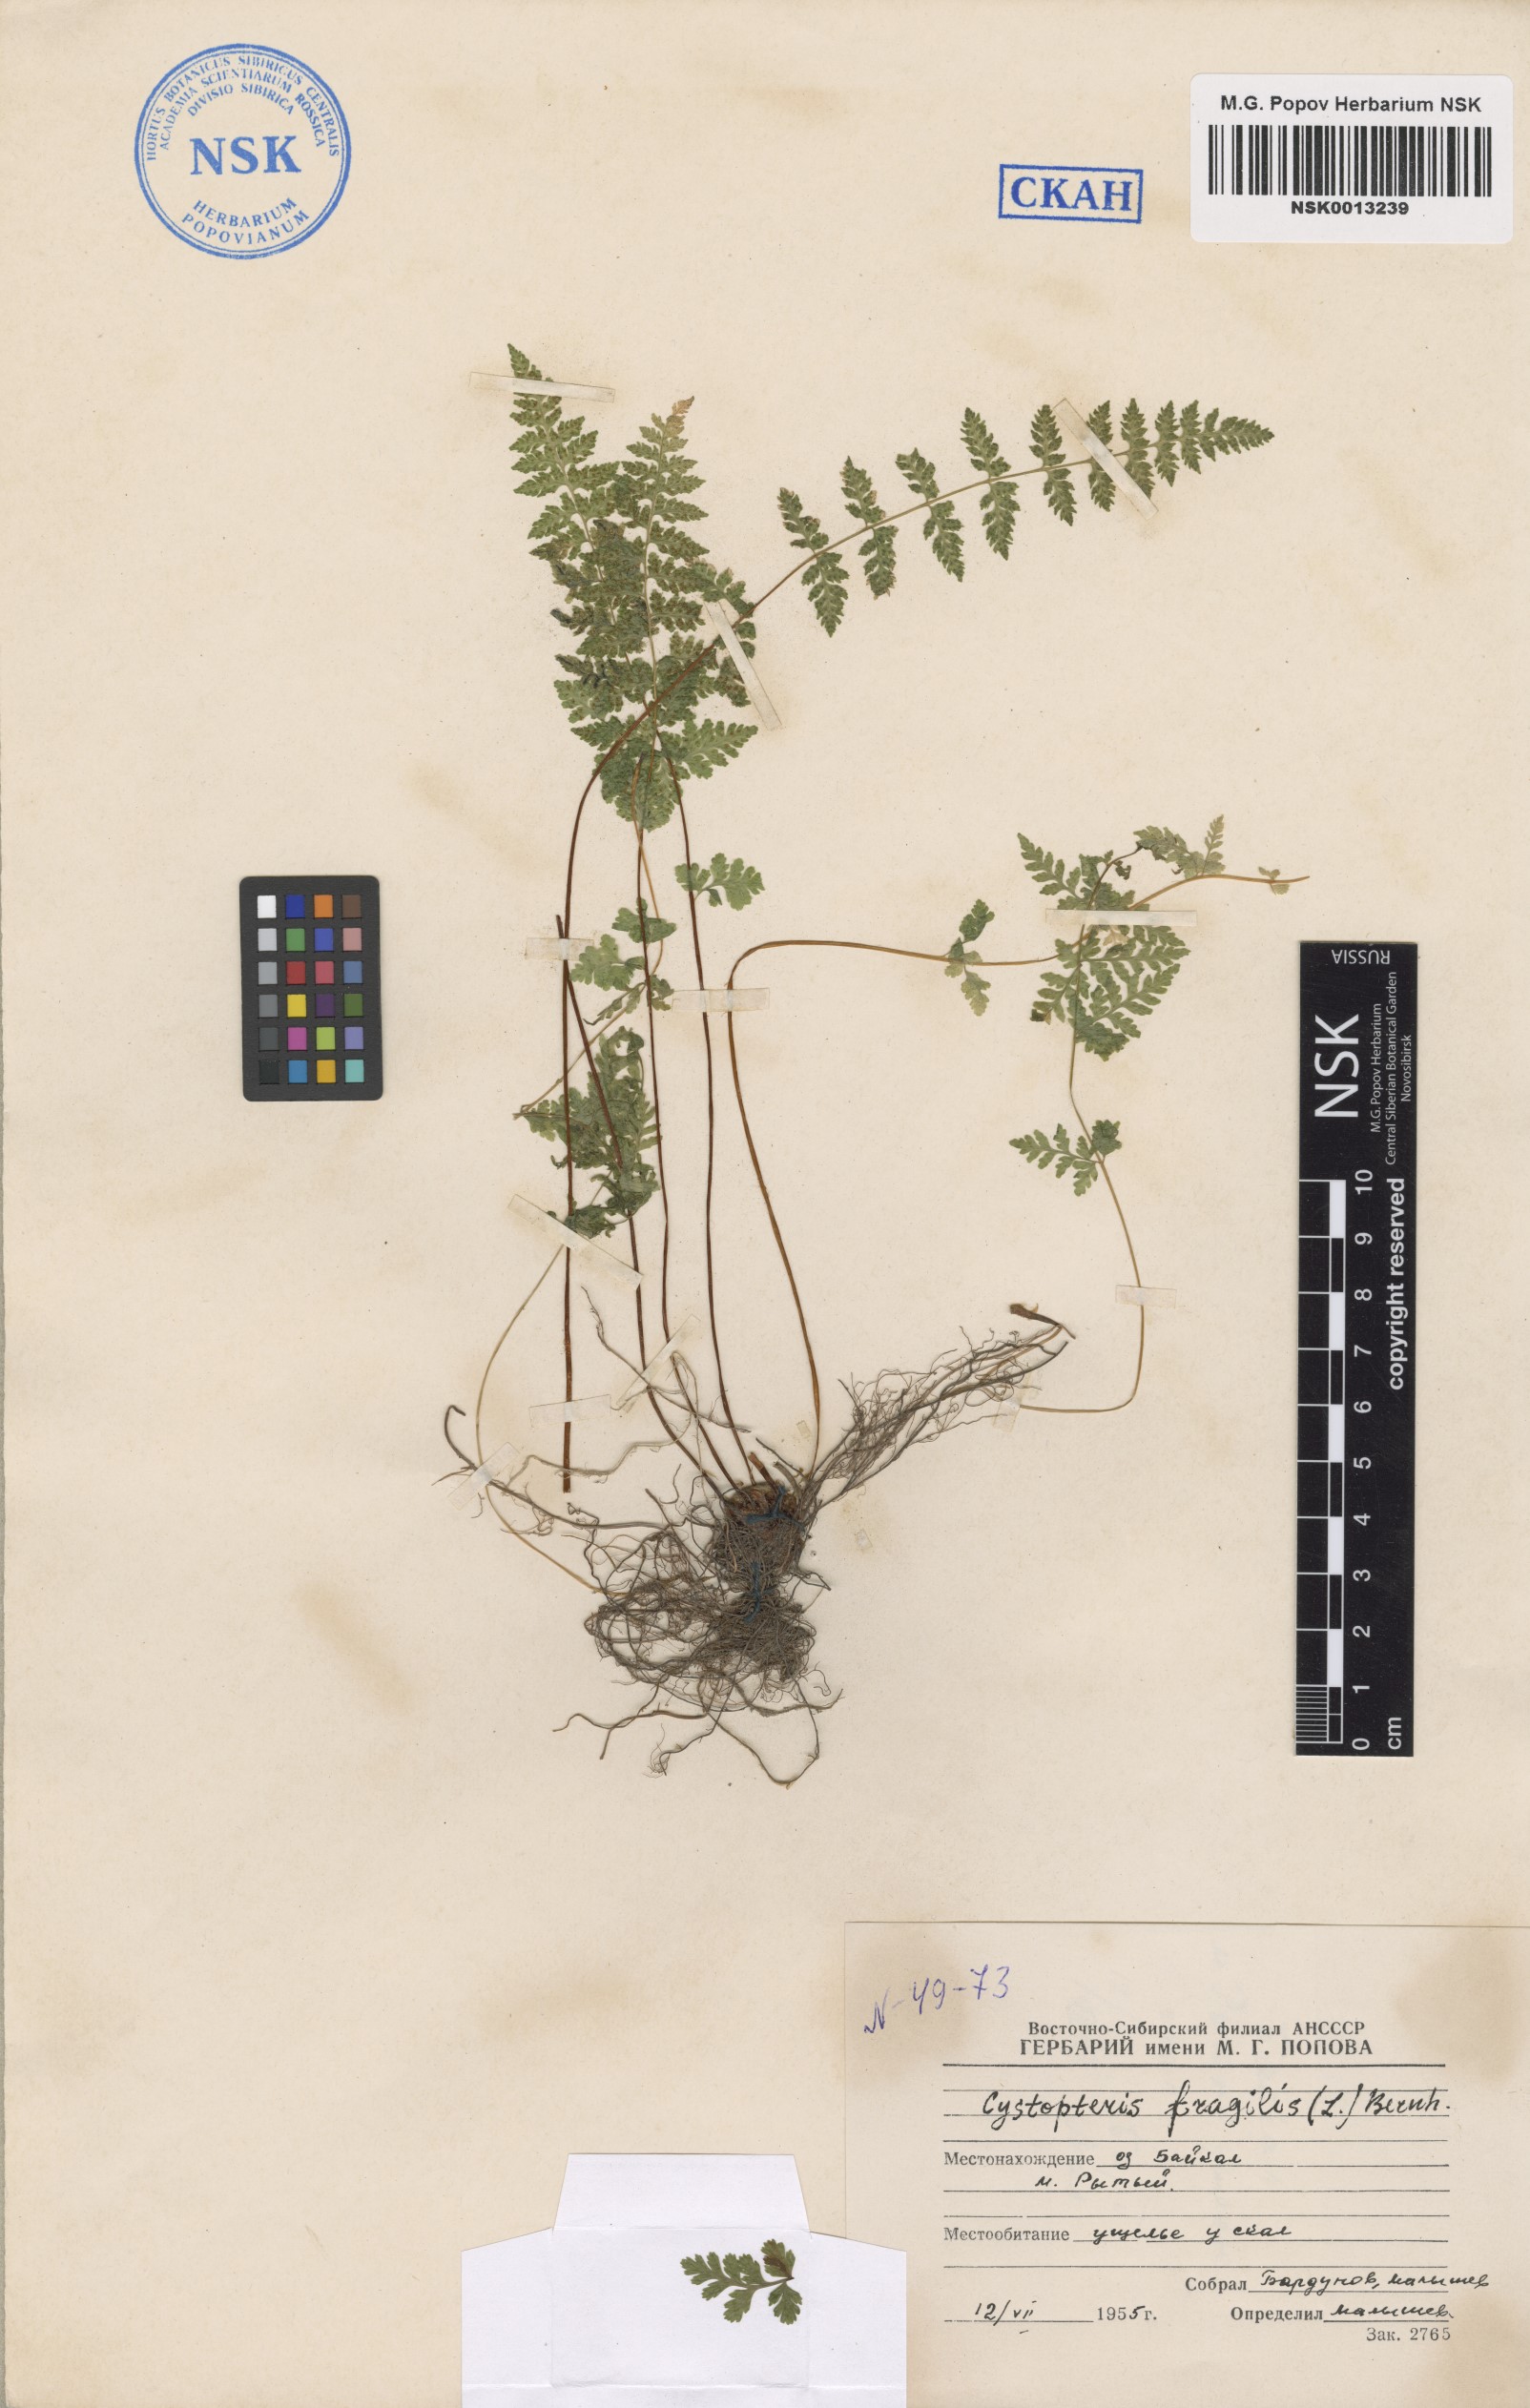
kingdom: Plantae
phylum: Tracheophyta
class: Polypodiopsida
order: Polypodiales
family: Cystopteridaceae
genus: Cystopteris
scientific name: Cystopteris fragilis
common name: Brittle bladder fern
